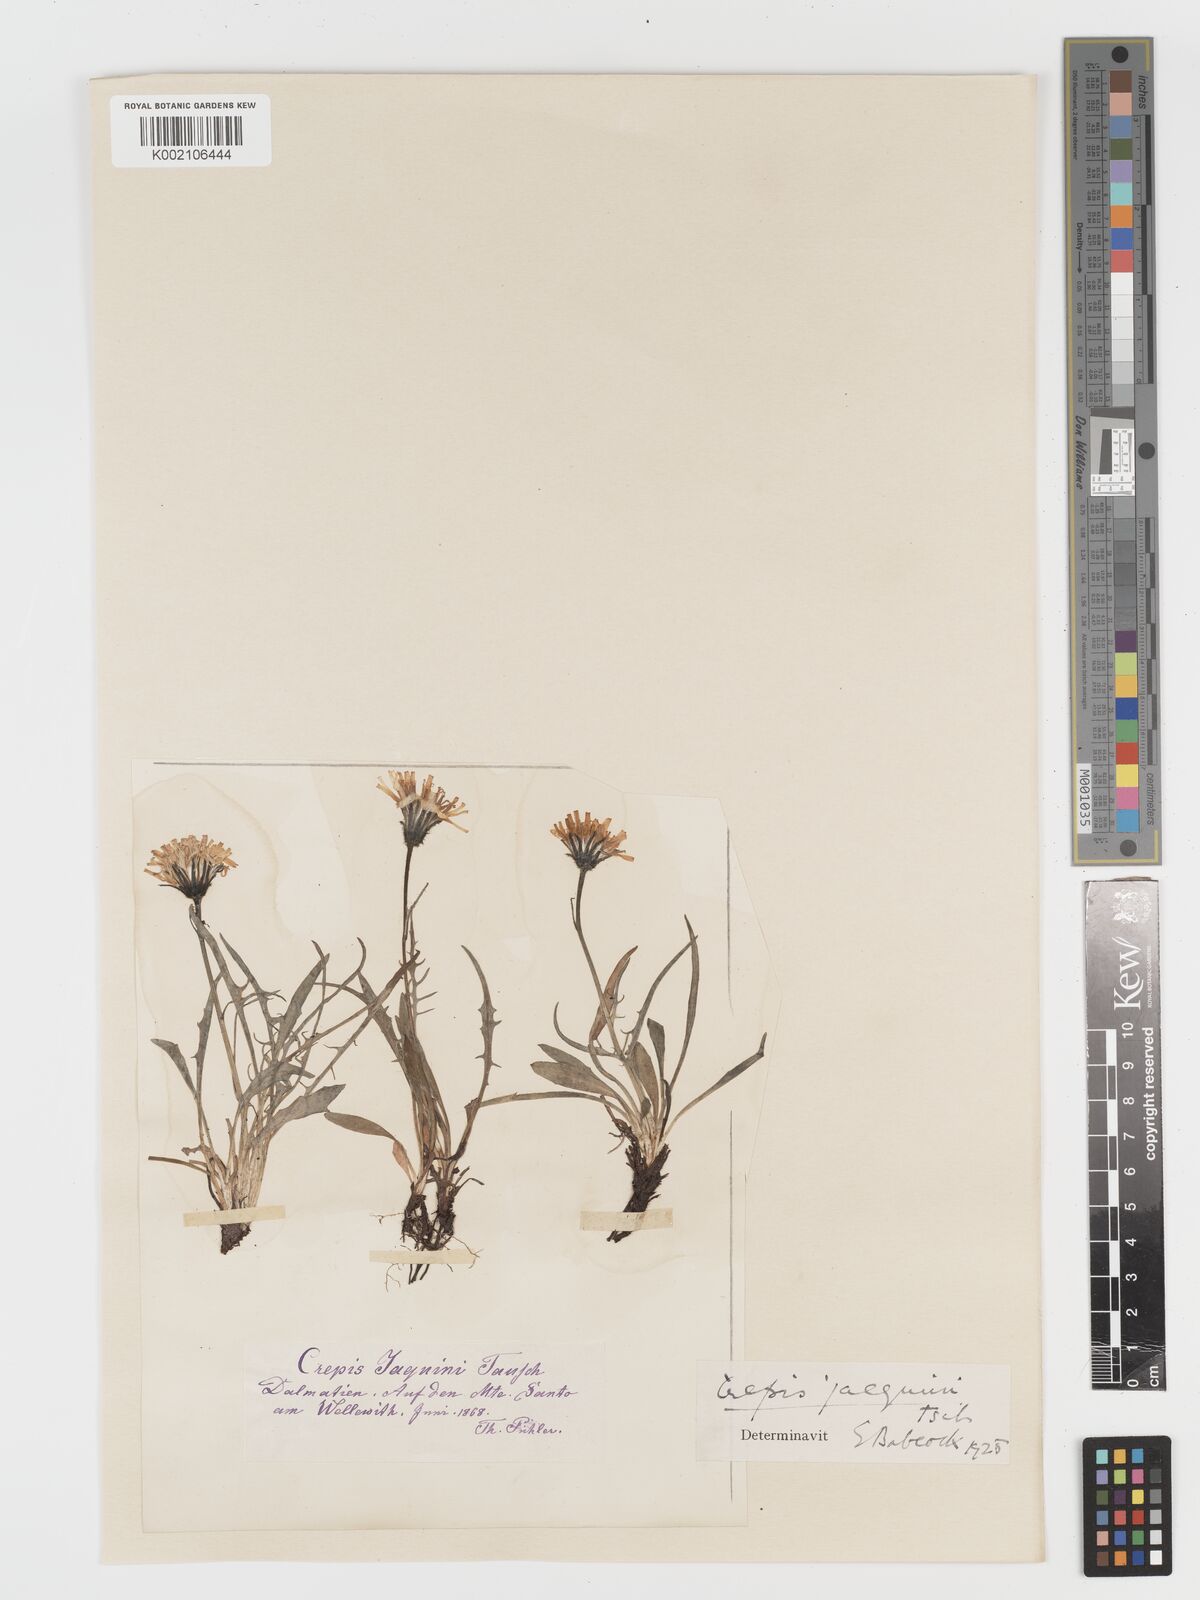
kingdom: Plantae
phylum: Tracheophyta
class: Magnoliopsida
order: Asterales
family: Asteraceae
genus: Crepis
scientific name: Crepis jacquinii
